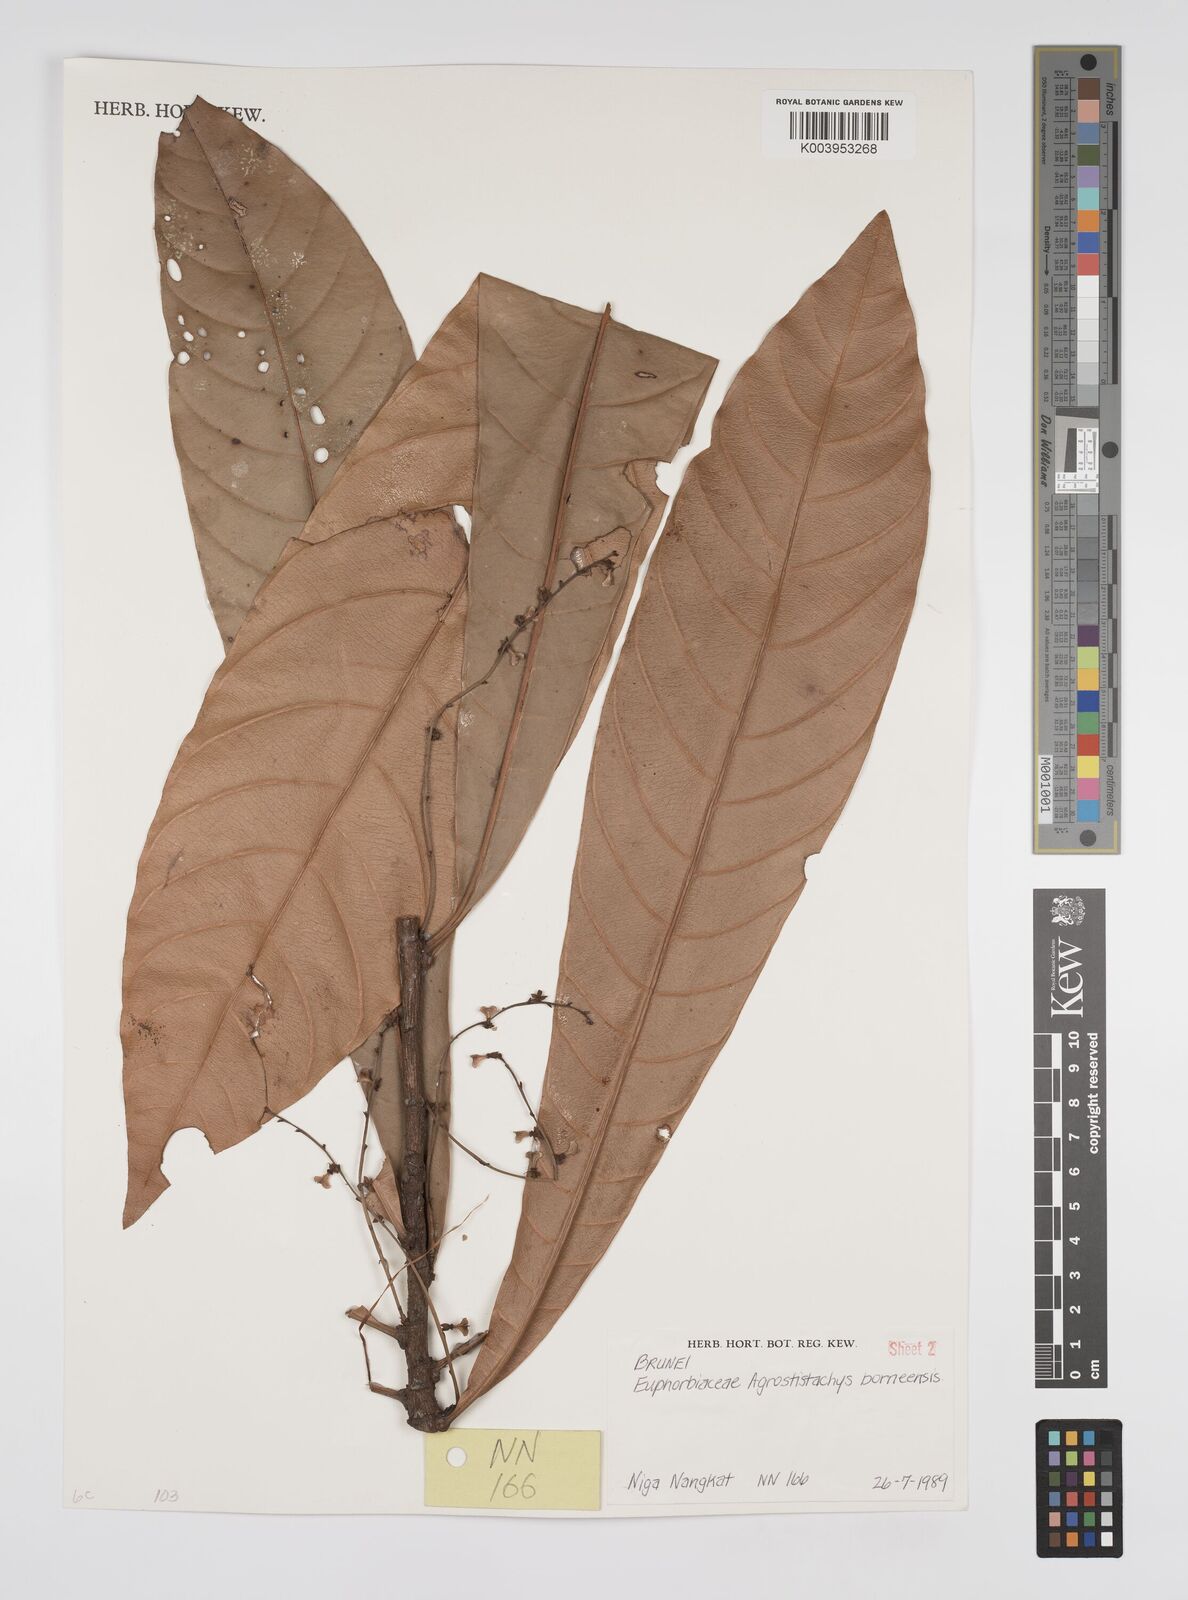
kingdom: Plantae
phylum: Tracheophyta
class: Magnoliopsida
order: Malpighiales
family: Euphorbiaceae
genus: Agrostistachys
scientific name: Agrostistachys borneensis
